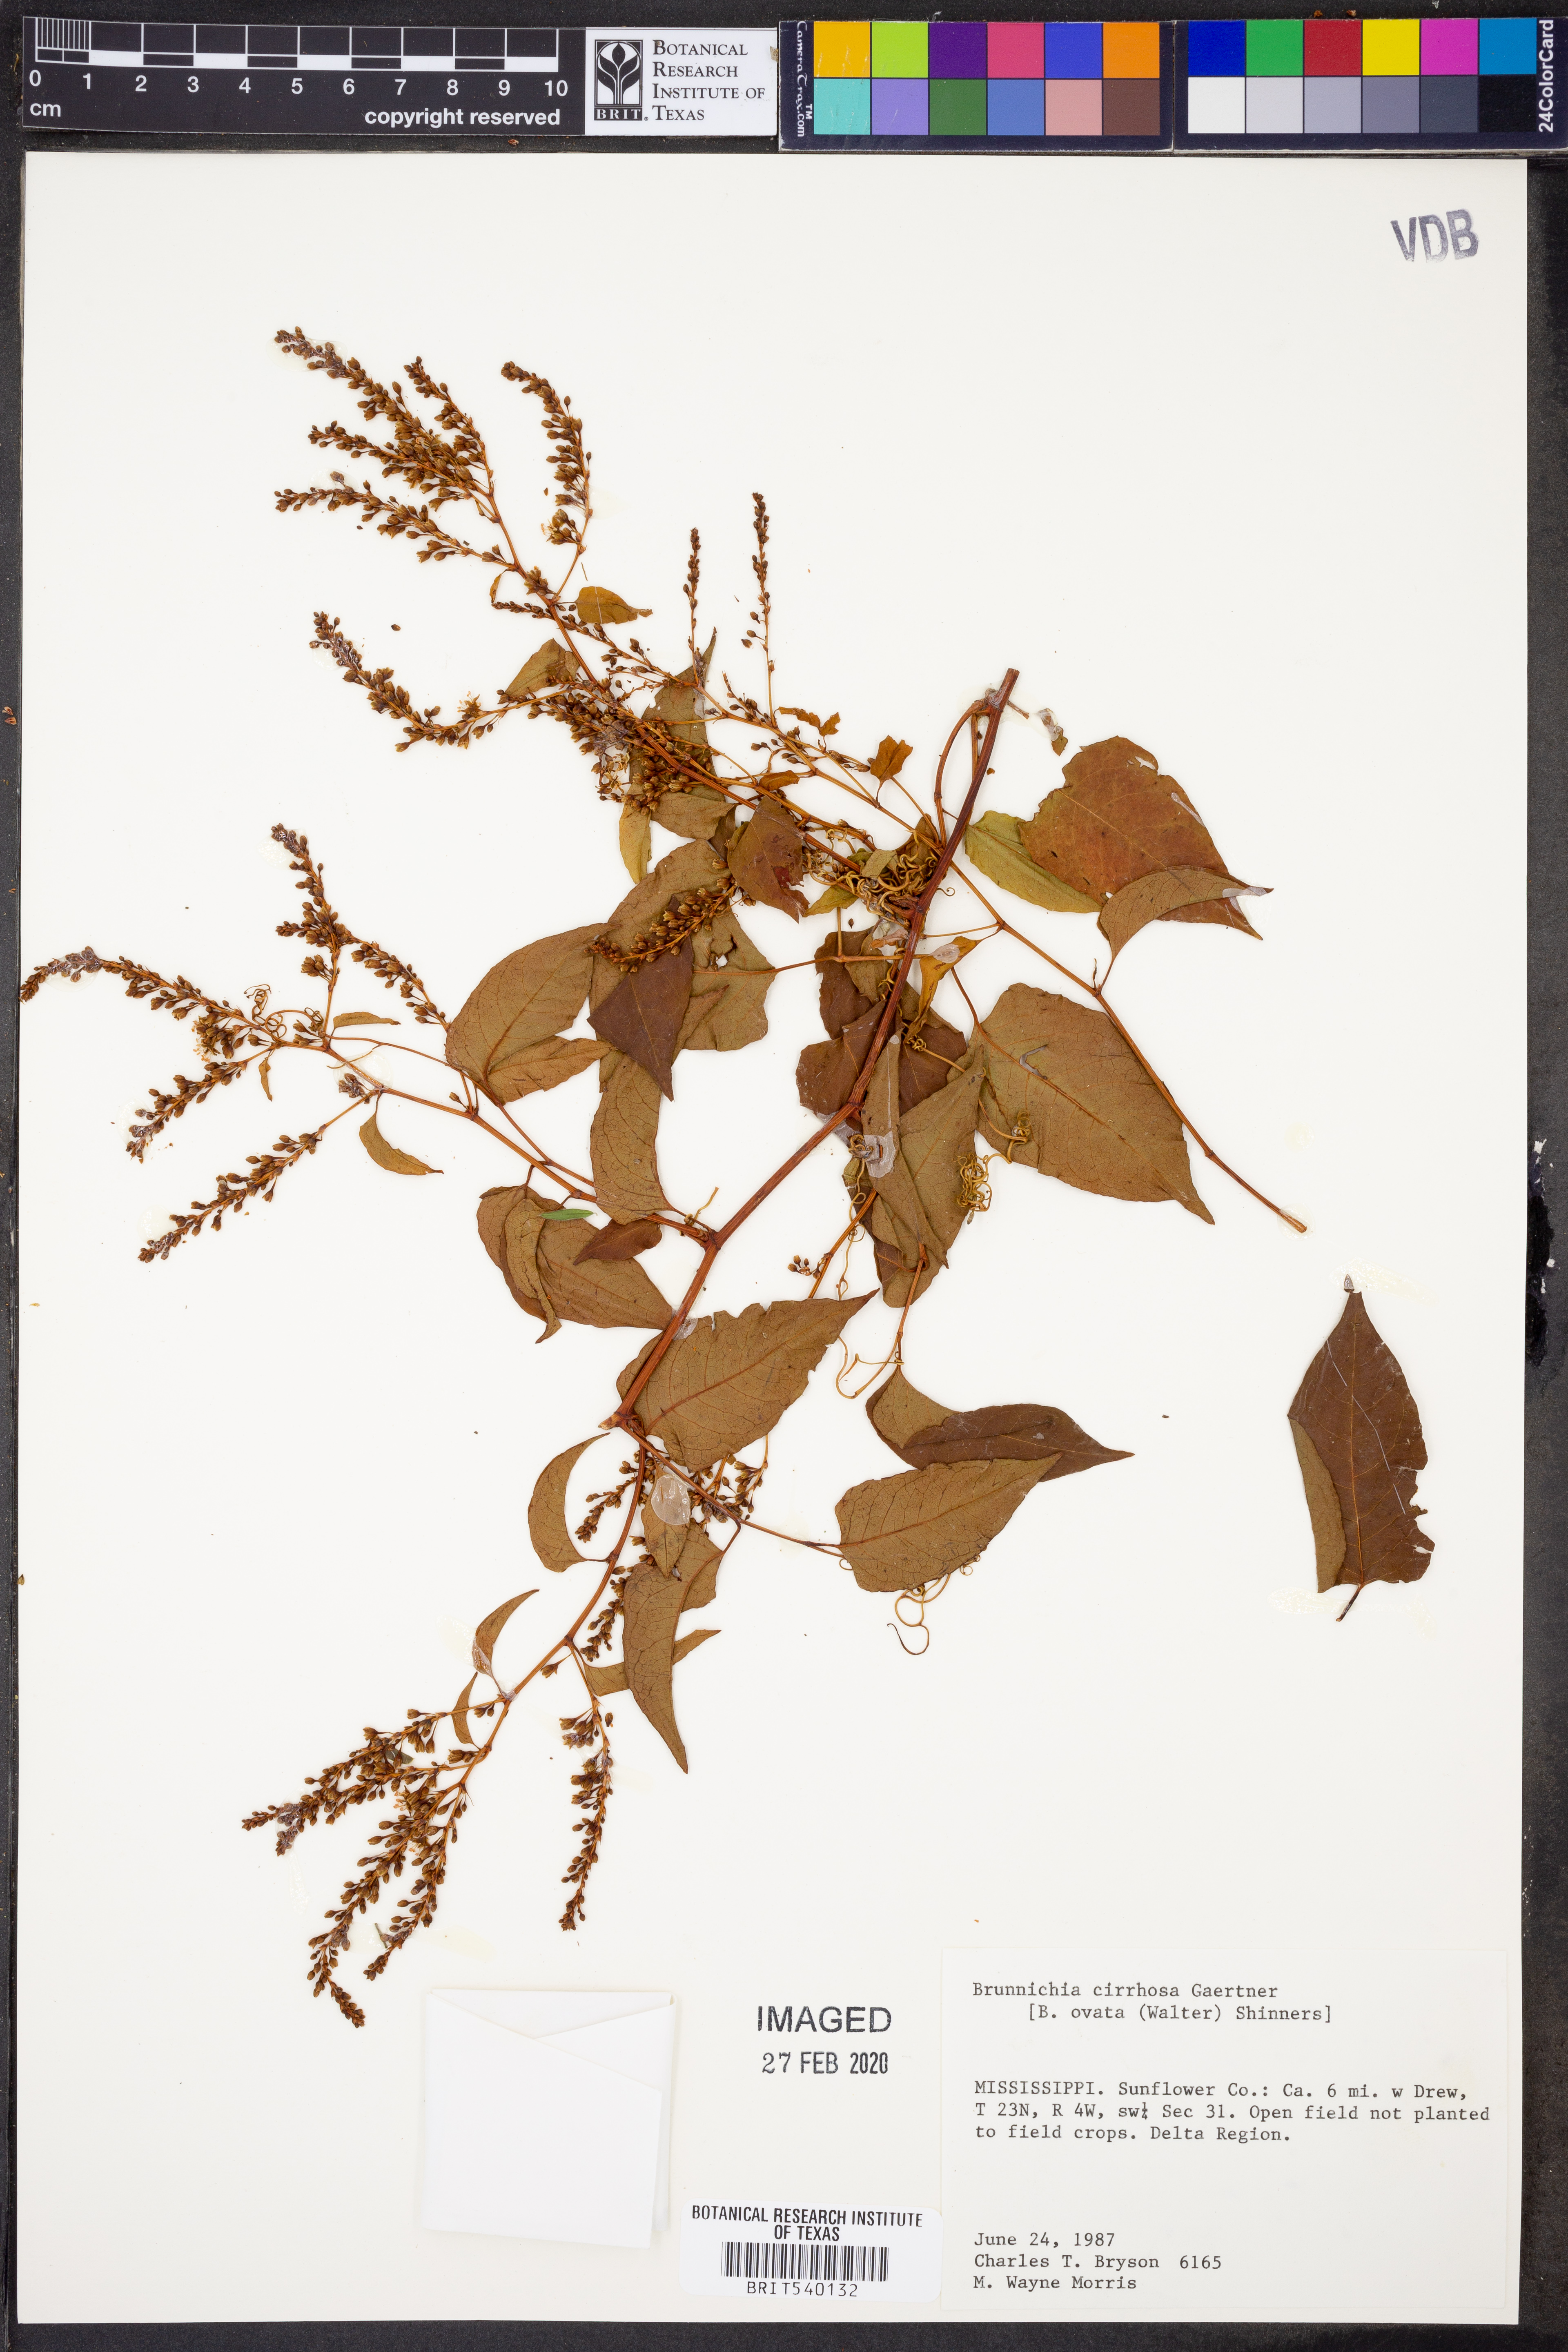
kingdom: Plantae
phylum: Tracheophyta
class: Magnoliopsida
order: Caryophyllales
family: Polygonaceae
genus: Brunnichia
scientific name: Brunnichia ovata
